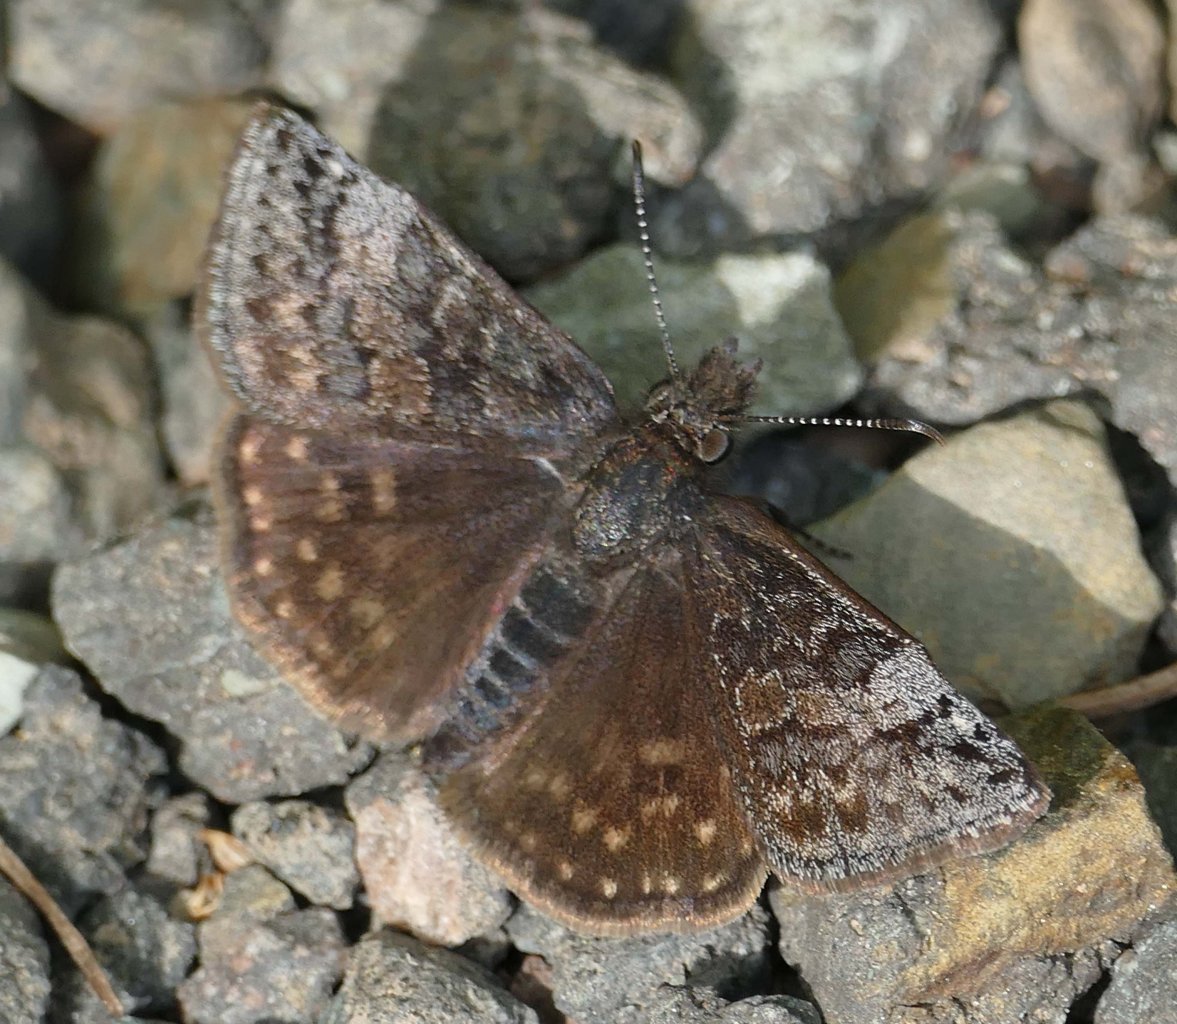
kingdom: Animalia
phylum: Arthropoda
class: Insecta
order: Lepidoptera
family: Hesperiidae
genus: Erynnis
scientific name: Erynnis icelus
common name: Dreamy Duskywing
